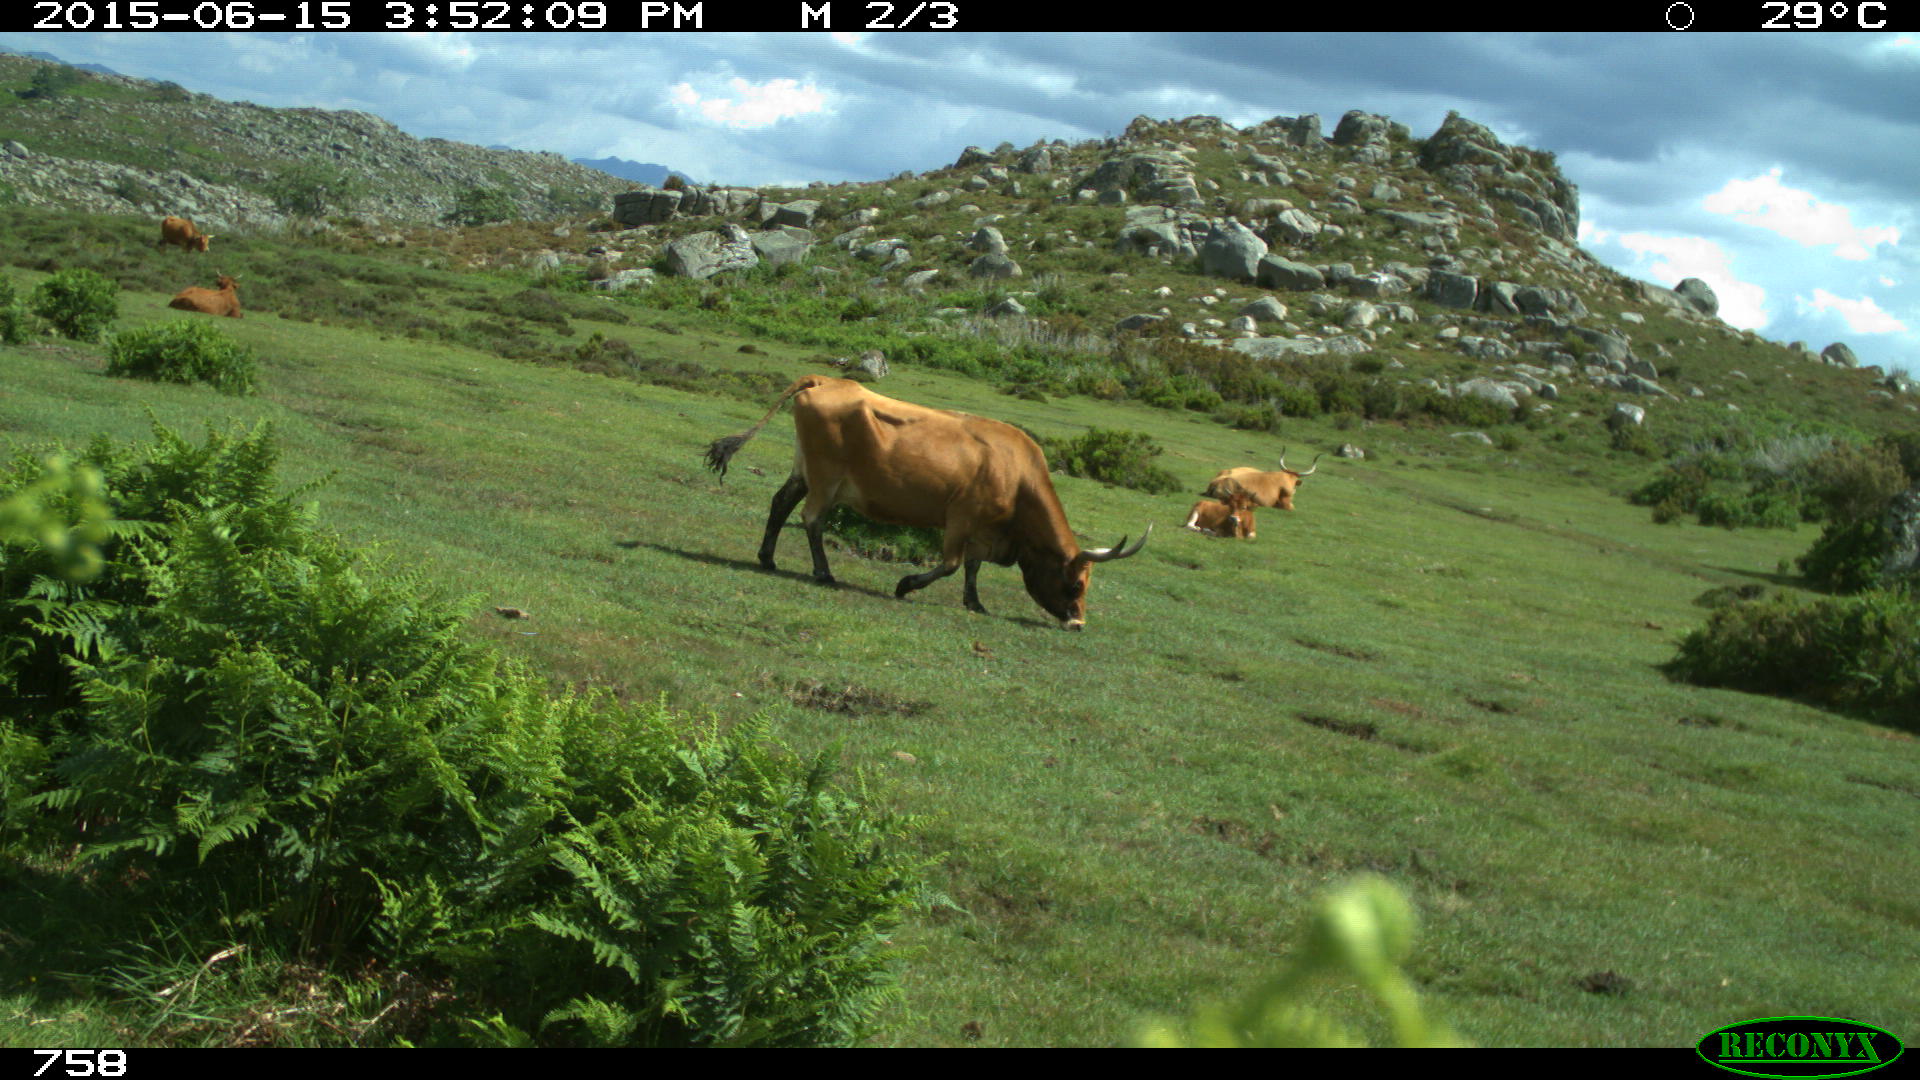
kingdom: Animalia
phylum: Chordata
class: Mammalia
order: Artiodactyla
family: Bovidae
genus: Bos
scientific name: Bos taurus
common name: Domesticated cattle
